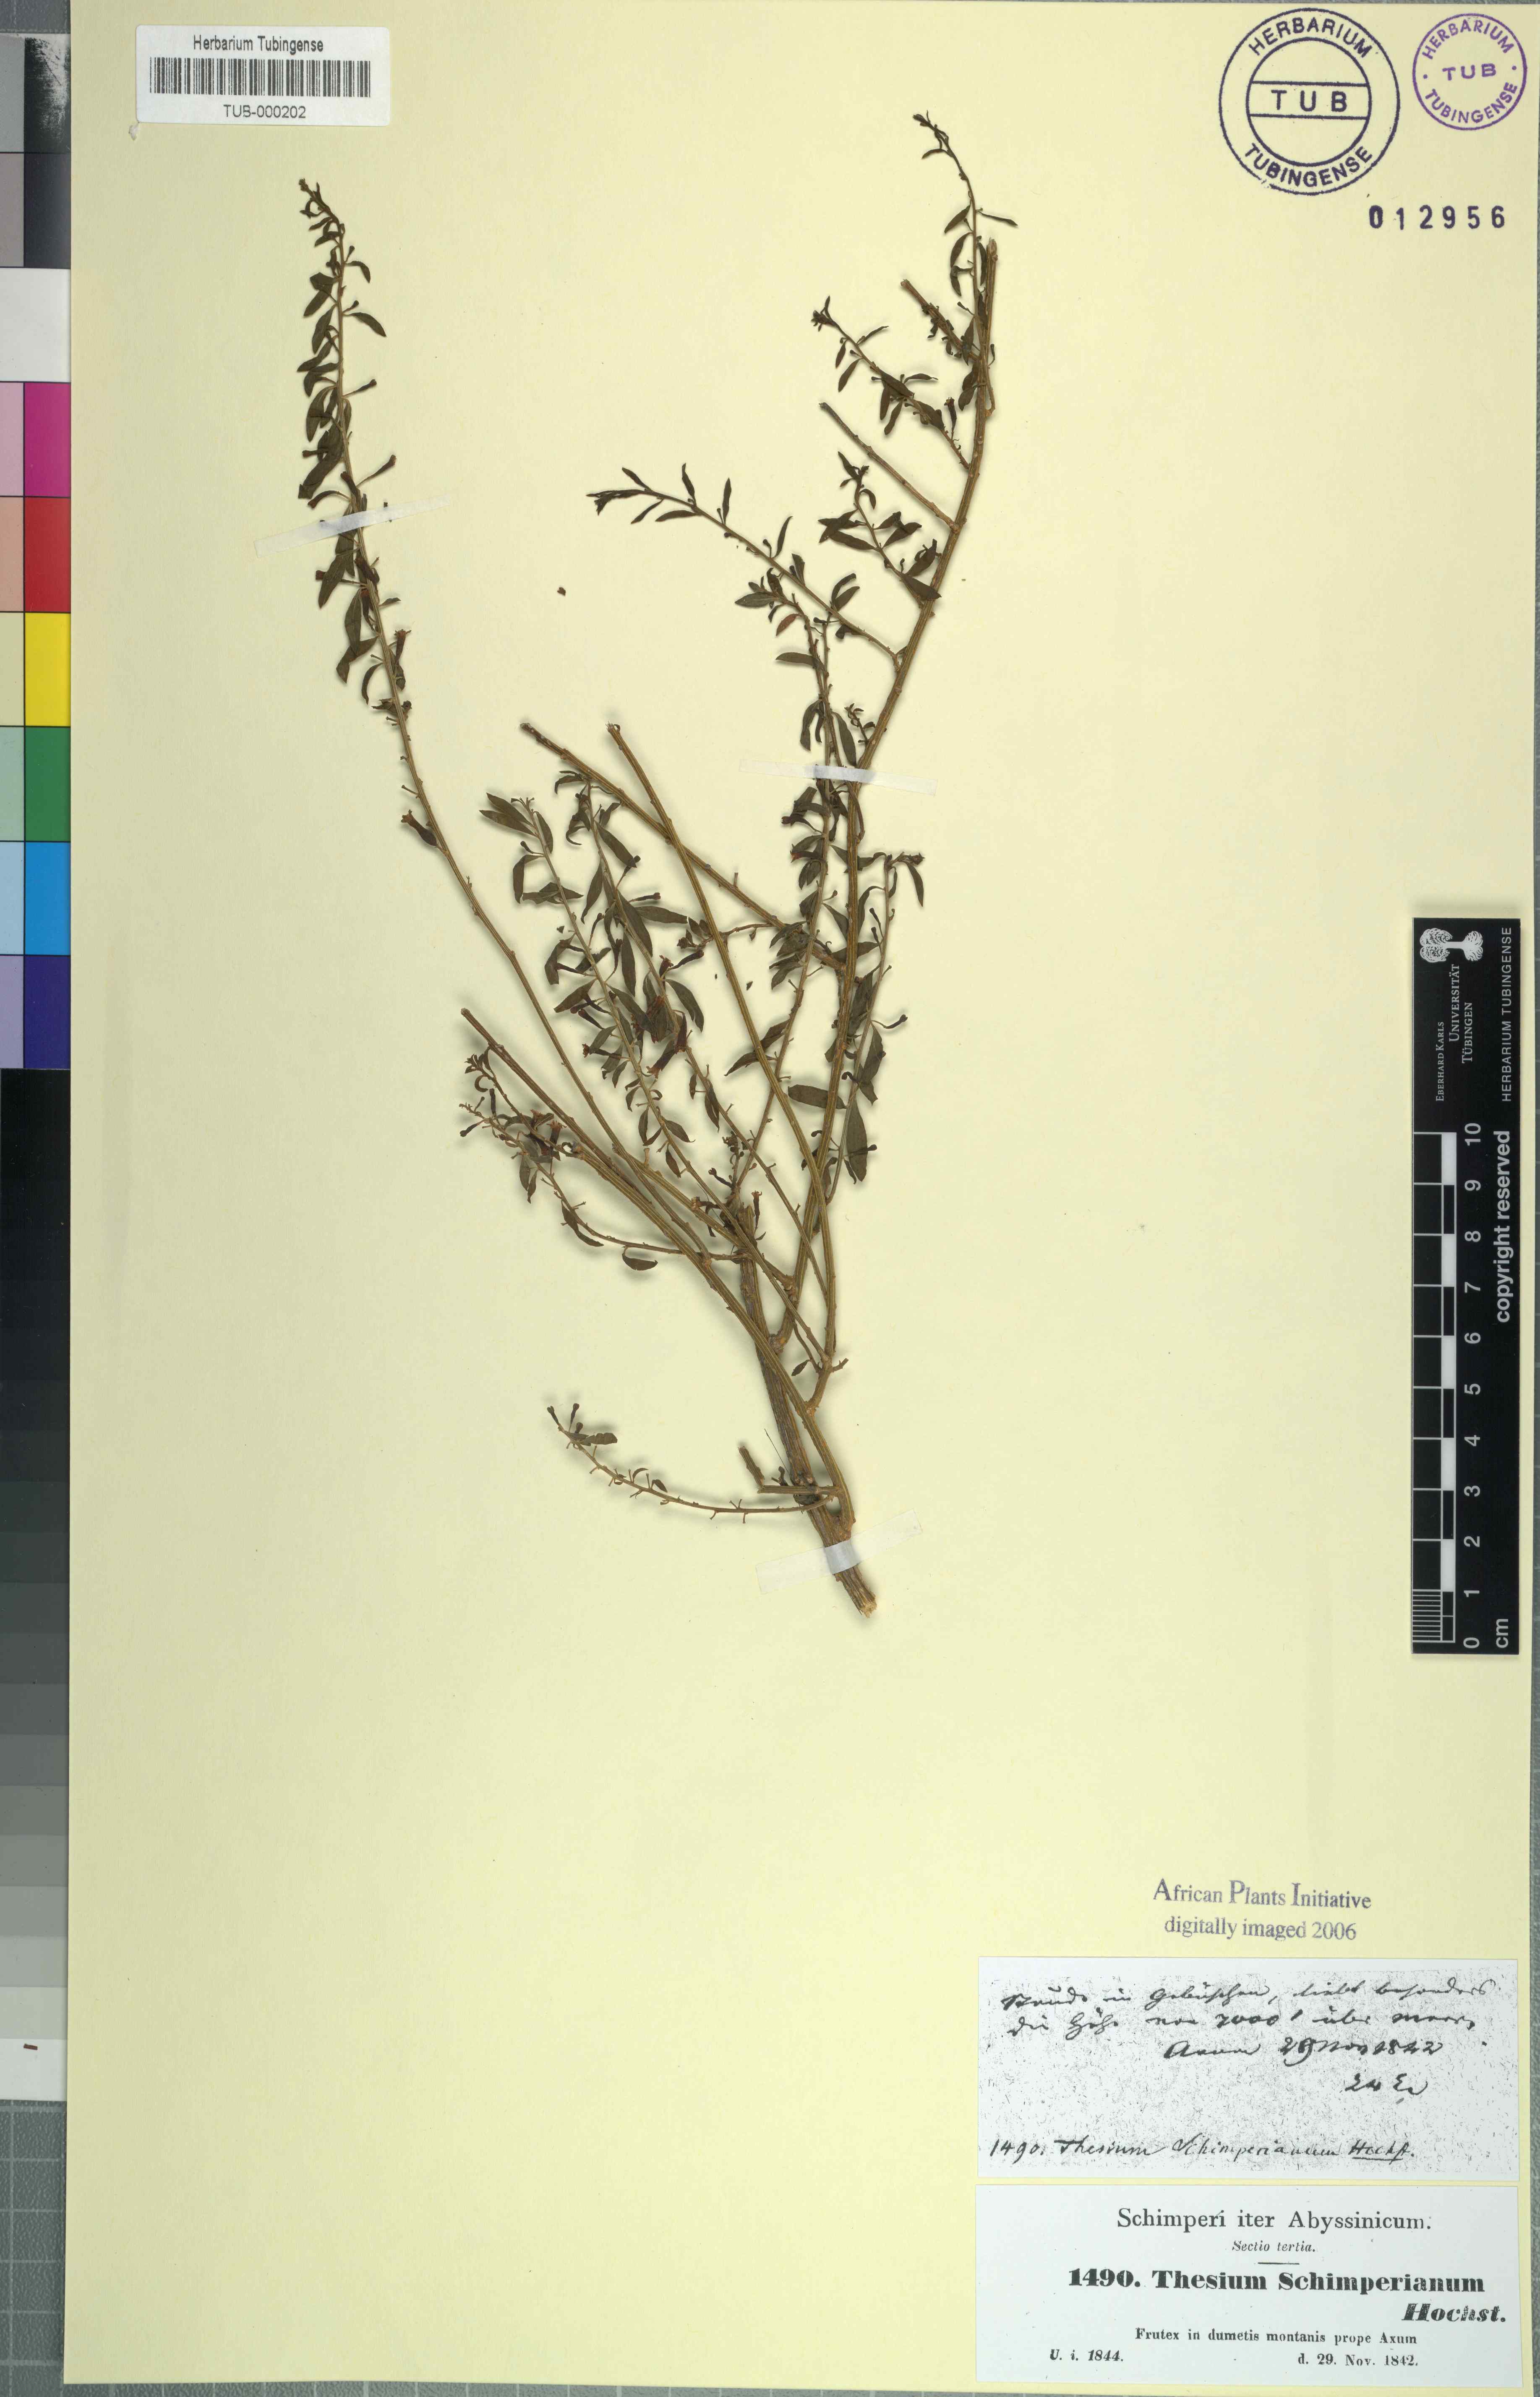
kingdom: Plantae
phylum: Tracheophyta
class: Magnoliopsida
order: Santalales
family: Thesiaceae
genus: Osyridicarpos
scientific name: Osyridicarpos schimperianus
